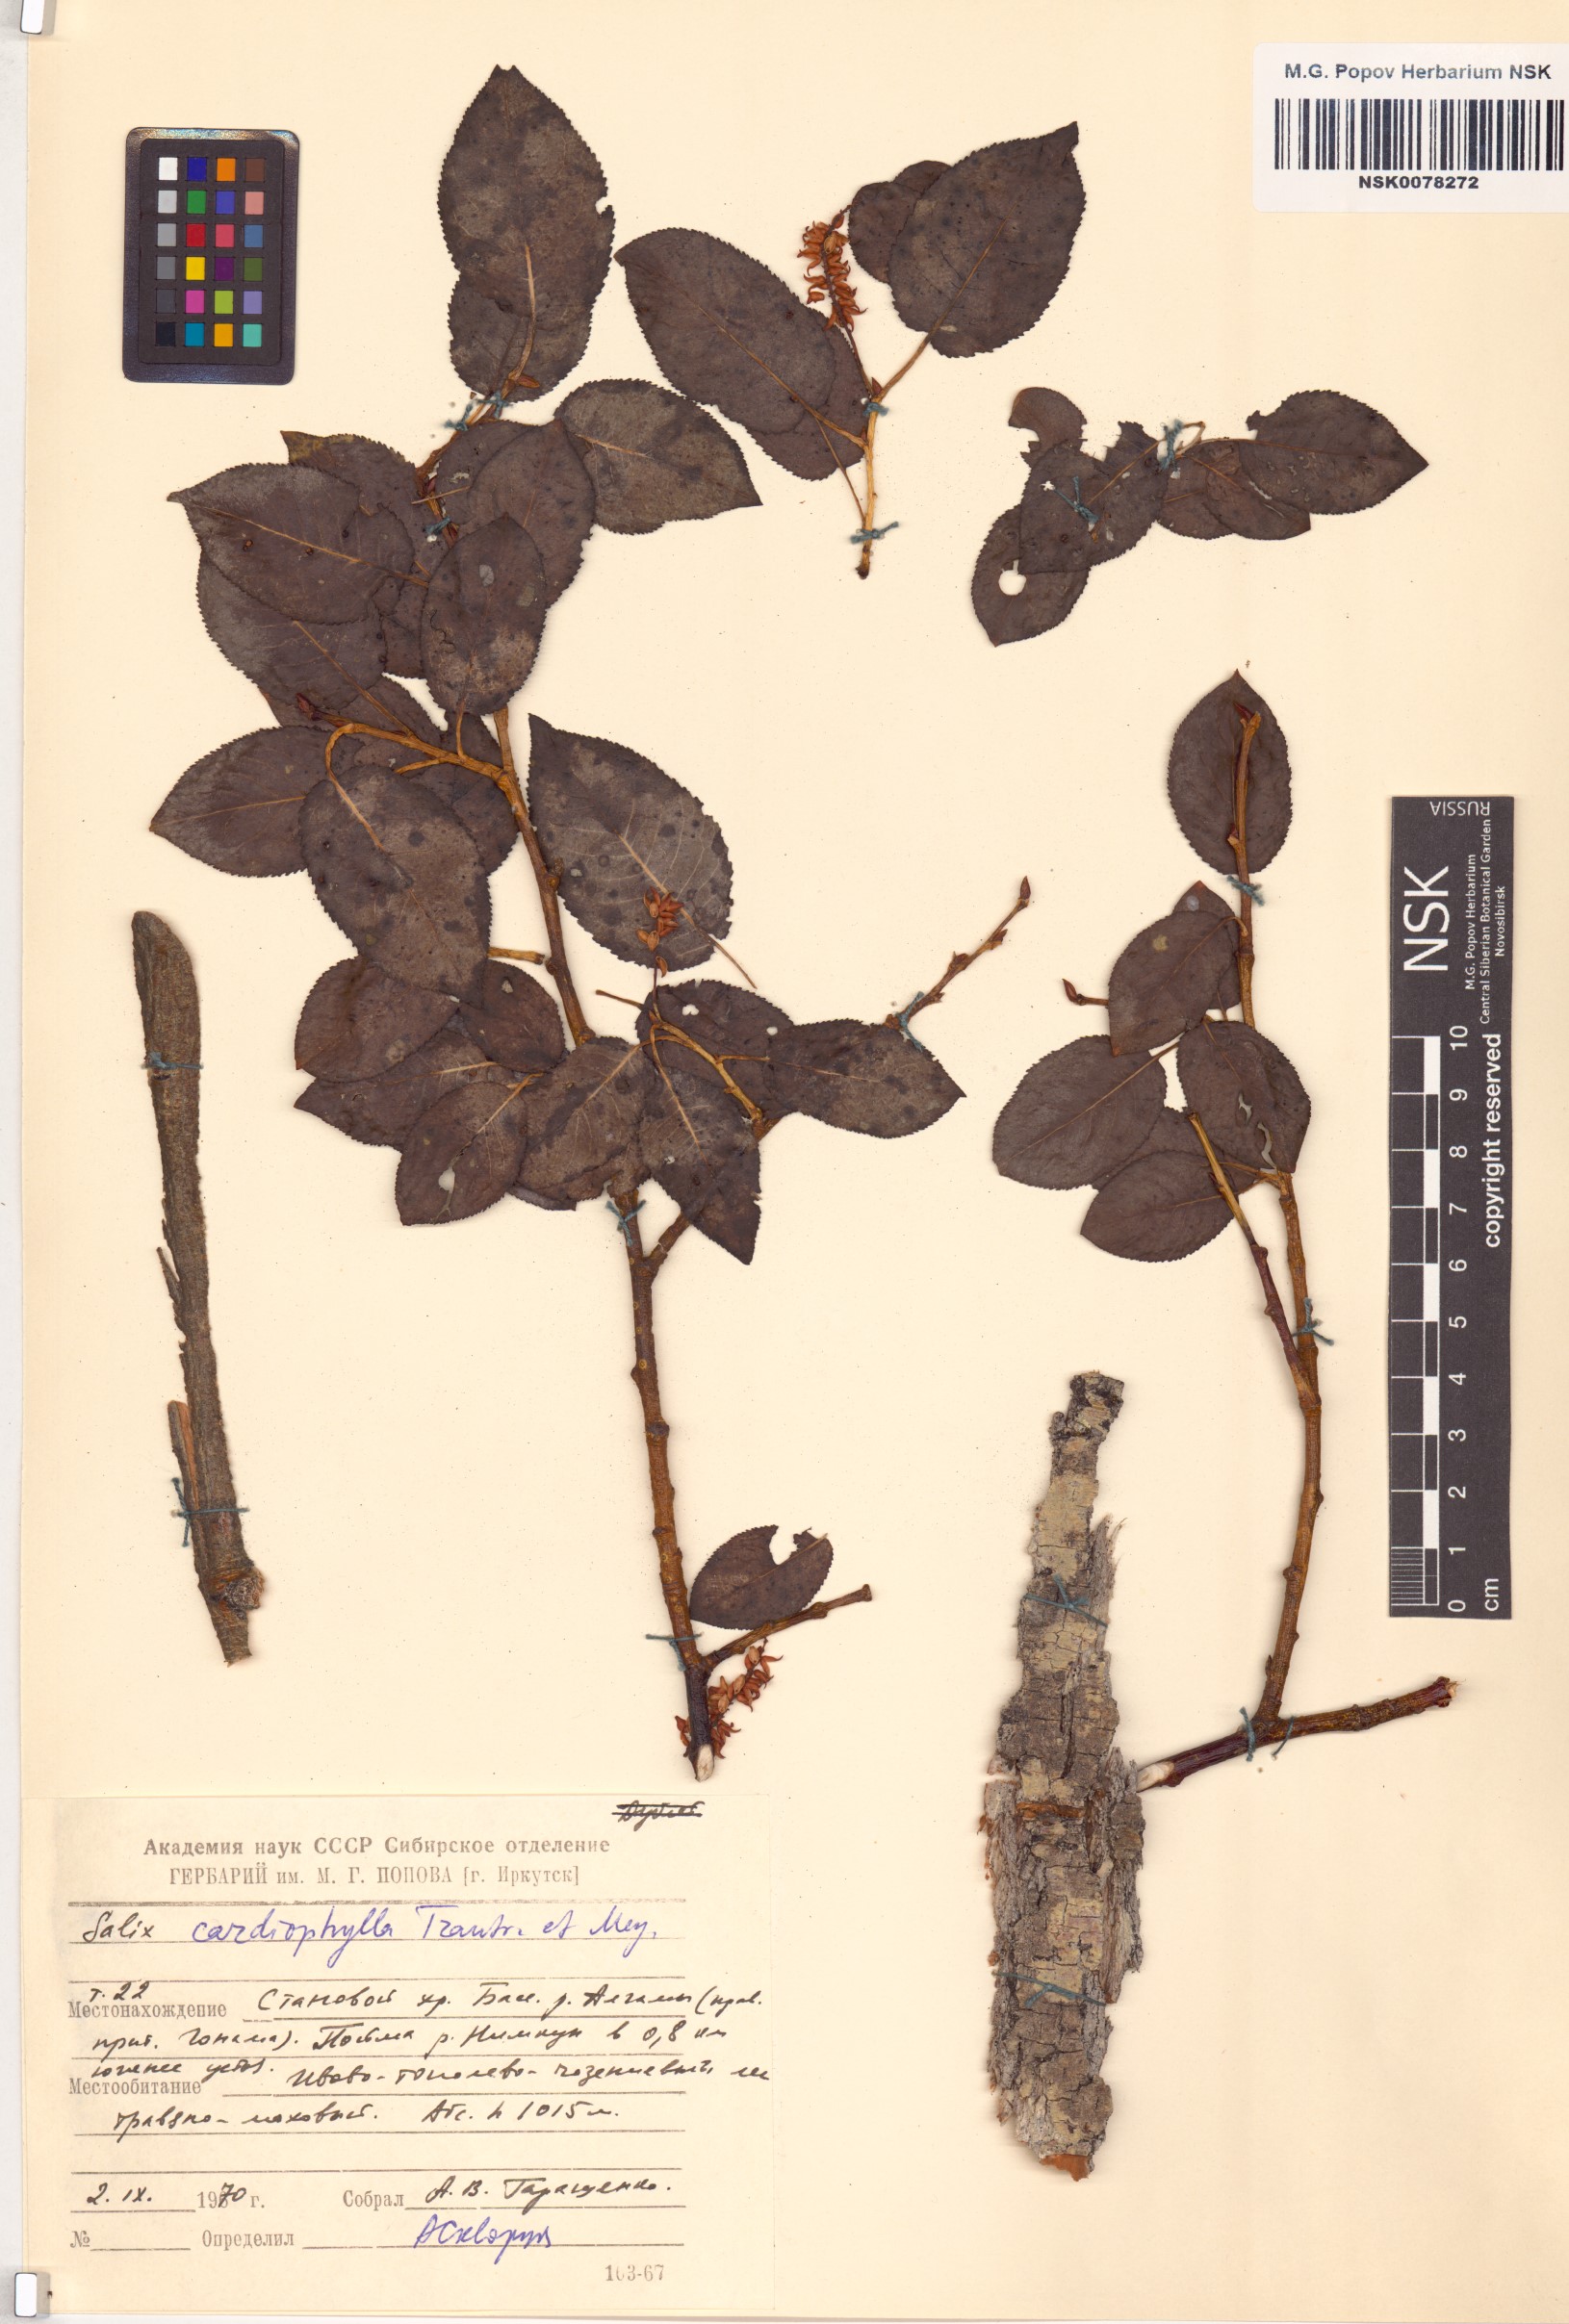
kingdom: Plantae
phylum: Tracheophyta
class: Magnoliopsida
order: Malpighiales
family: Salicaceae
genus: Chosenia
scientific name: Chosenia cardiophylla
